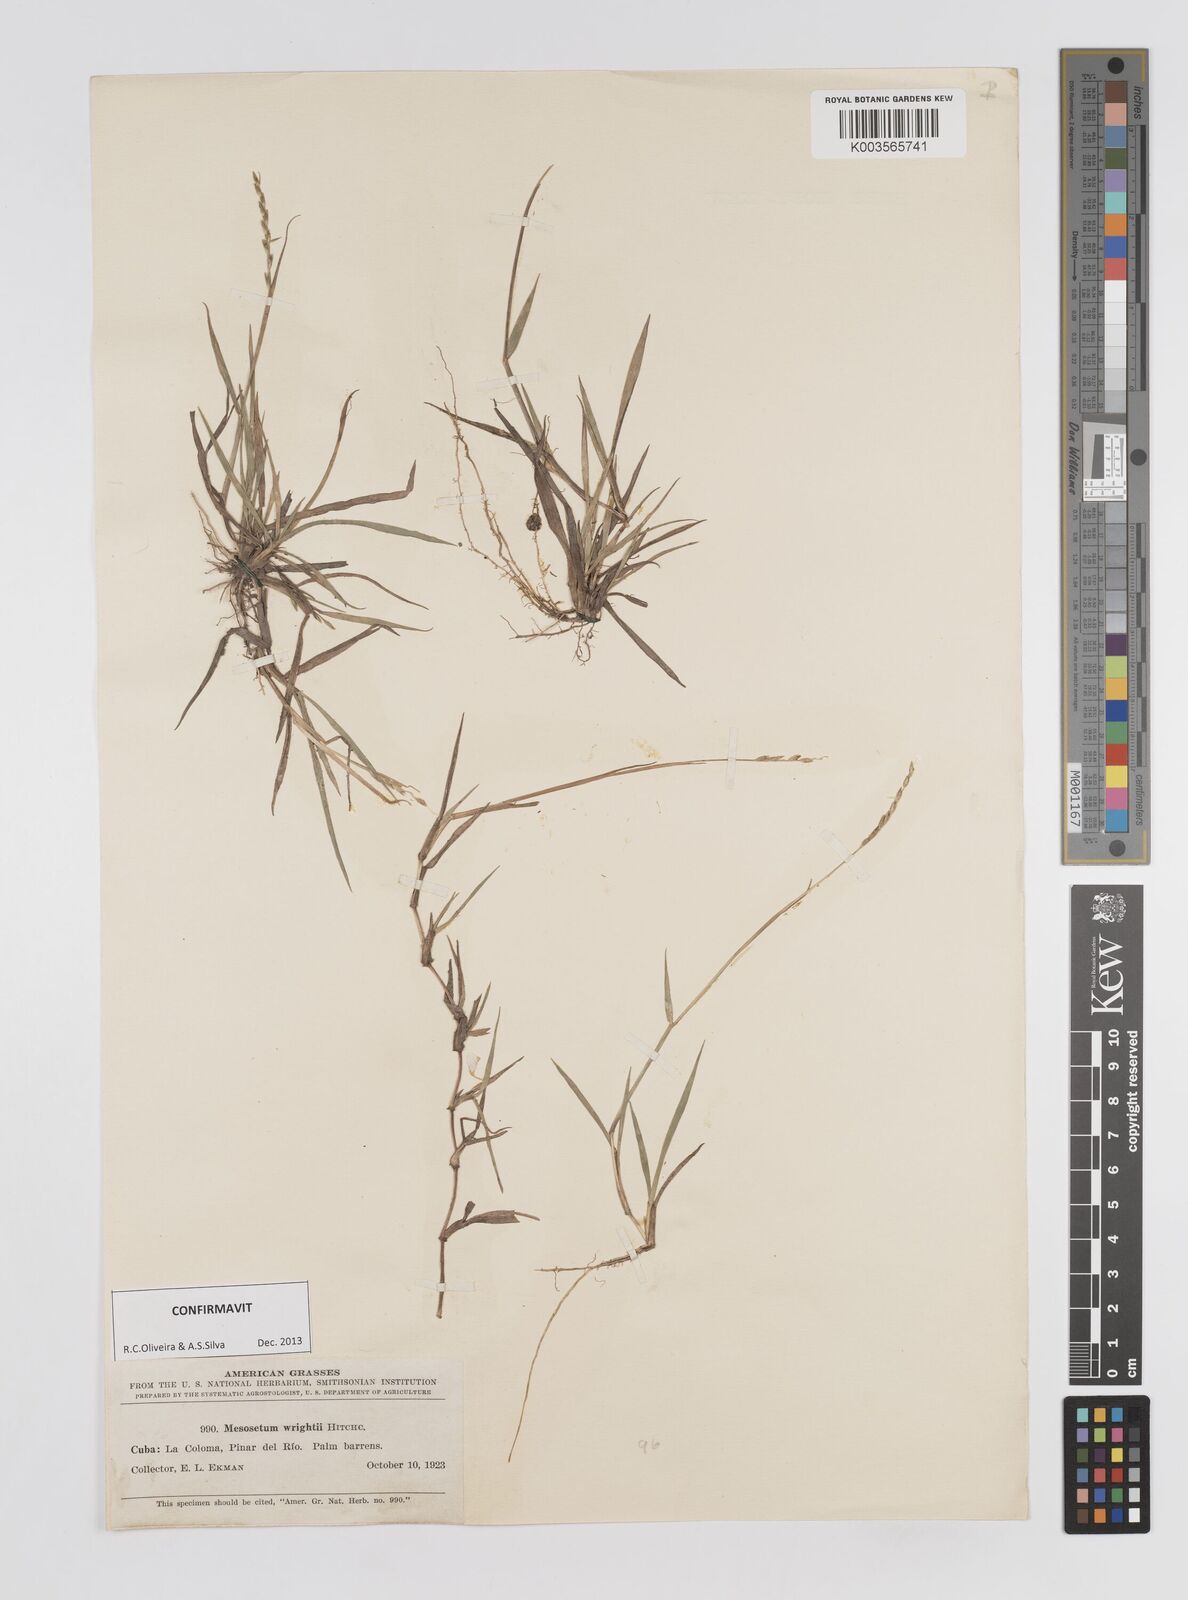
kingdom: Plantae
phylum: Tracheophyta
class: Liliopsida
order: Poales
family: Poaceae
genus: Mesosetum
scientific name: Mesosetum wrightii
